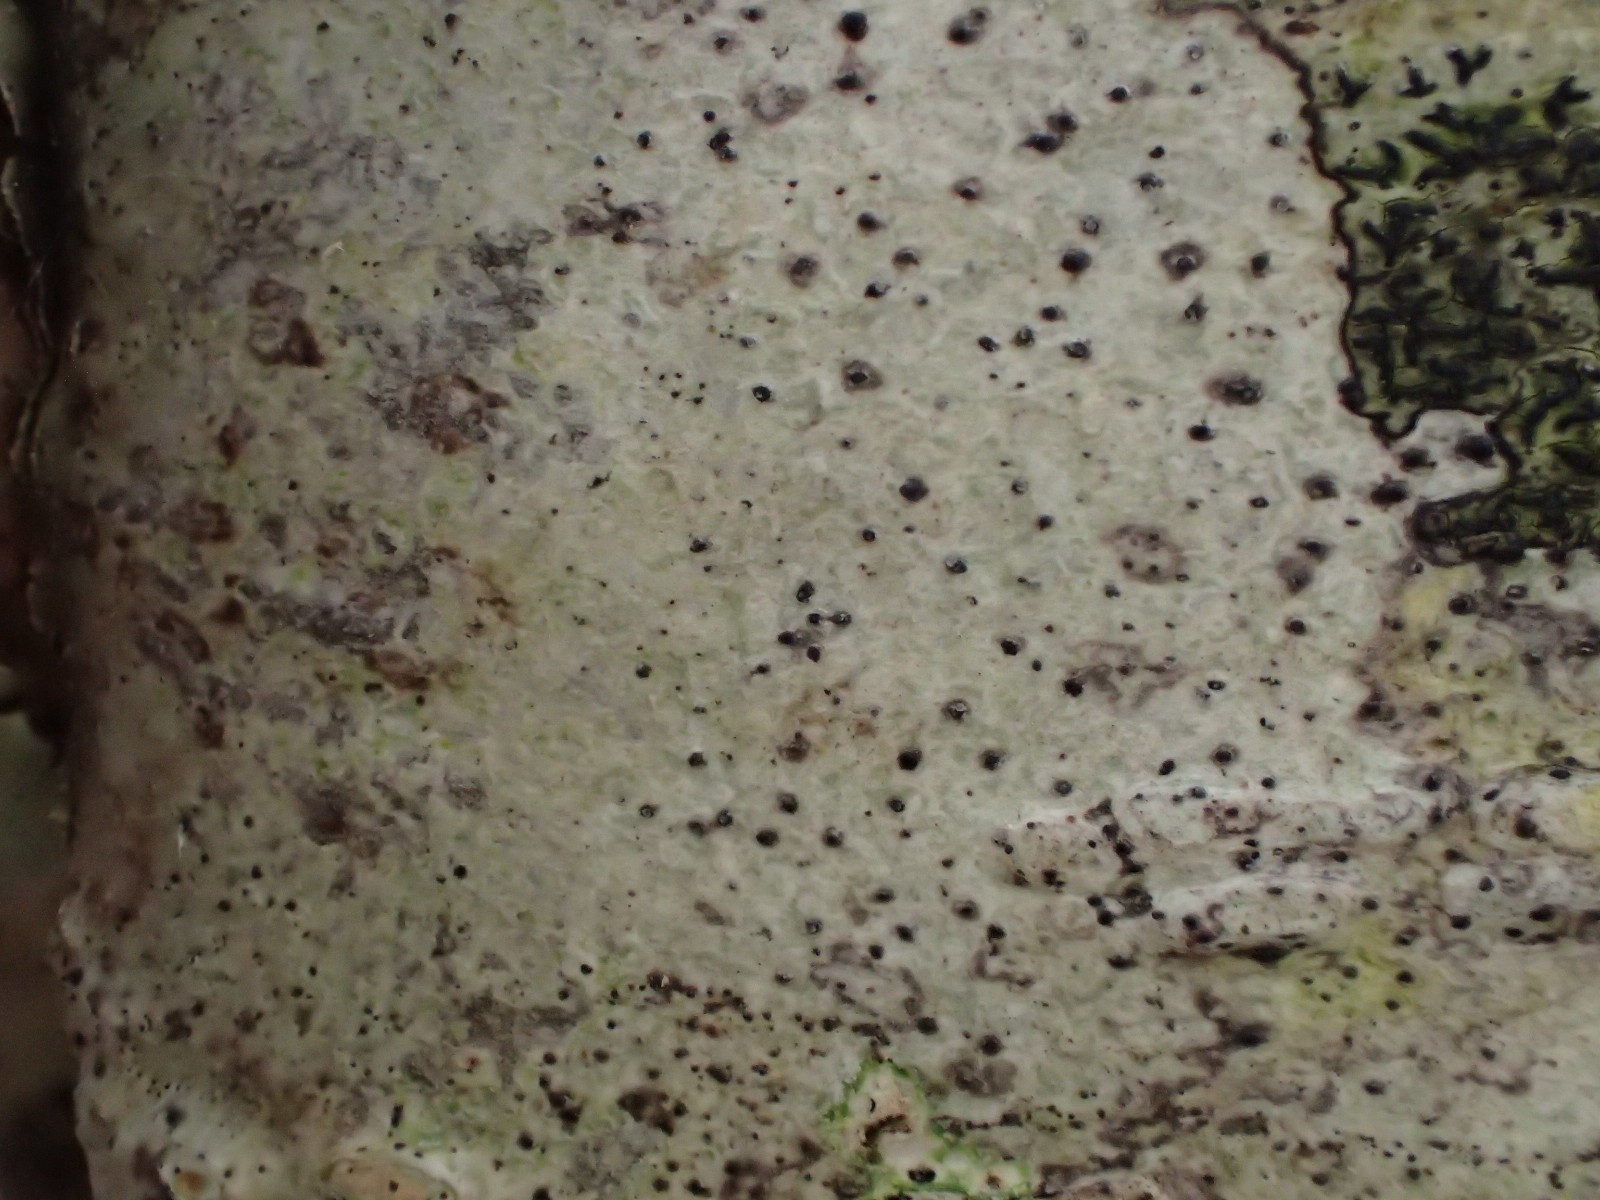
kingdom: Fungi
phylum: Ascomycota
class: Arthoniomycetes
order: Arthoniales
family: Arthoniaceae
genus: Arthonia
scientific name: Arthonia punctiformis
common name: bark-pletlav
